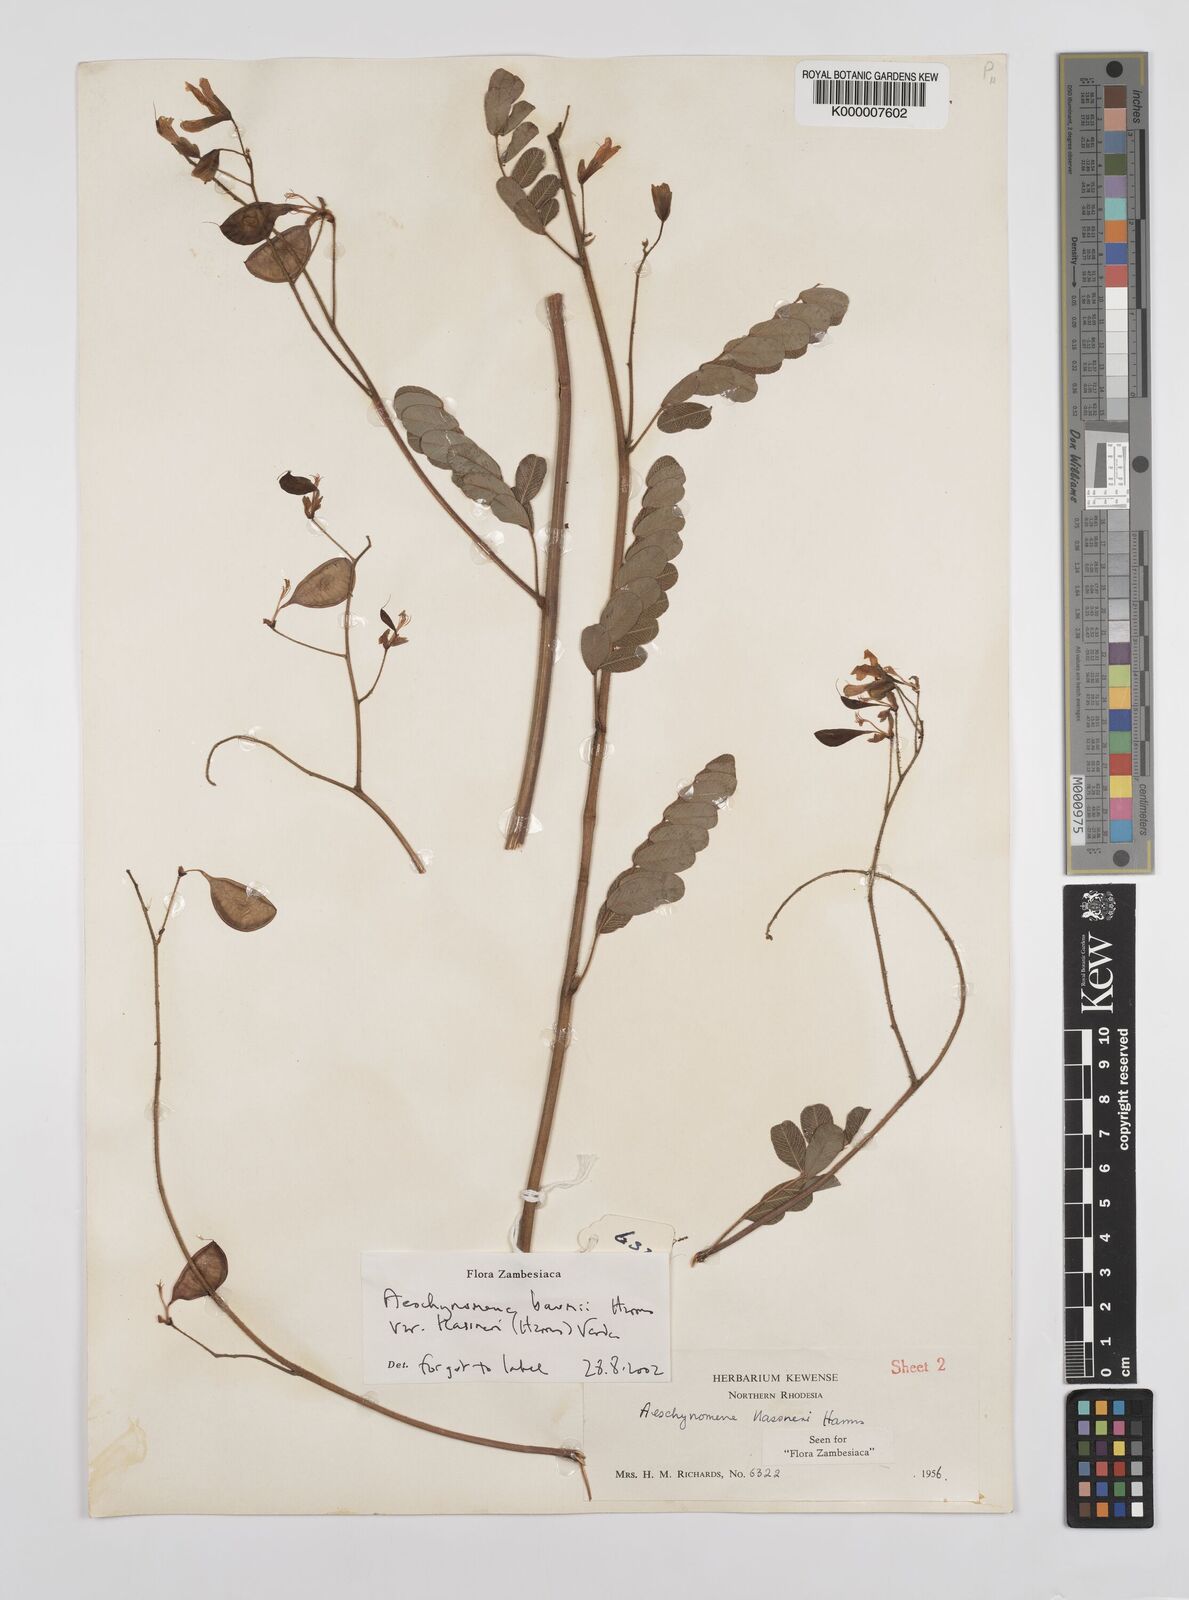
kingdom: Plantae
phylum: Tracheophyta
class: Magnoliopsida
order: Fabales
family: Fabaceae
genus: Aeschynomene
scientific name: Aeschynomene baumii
